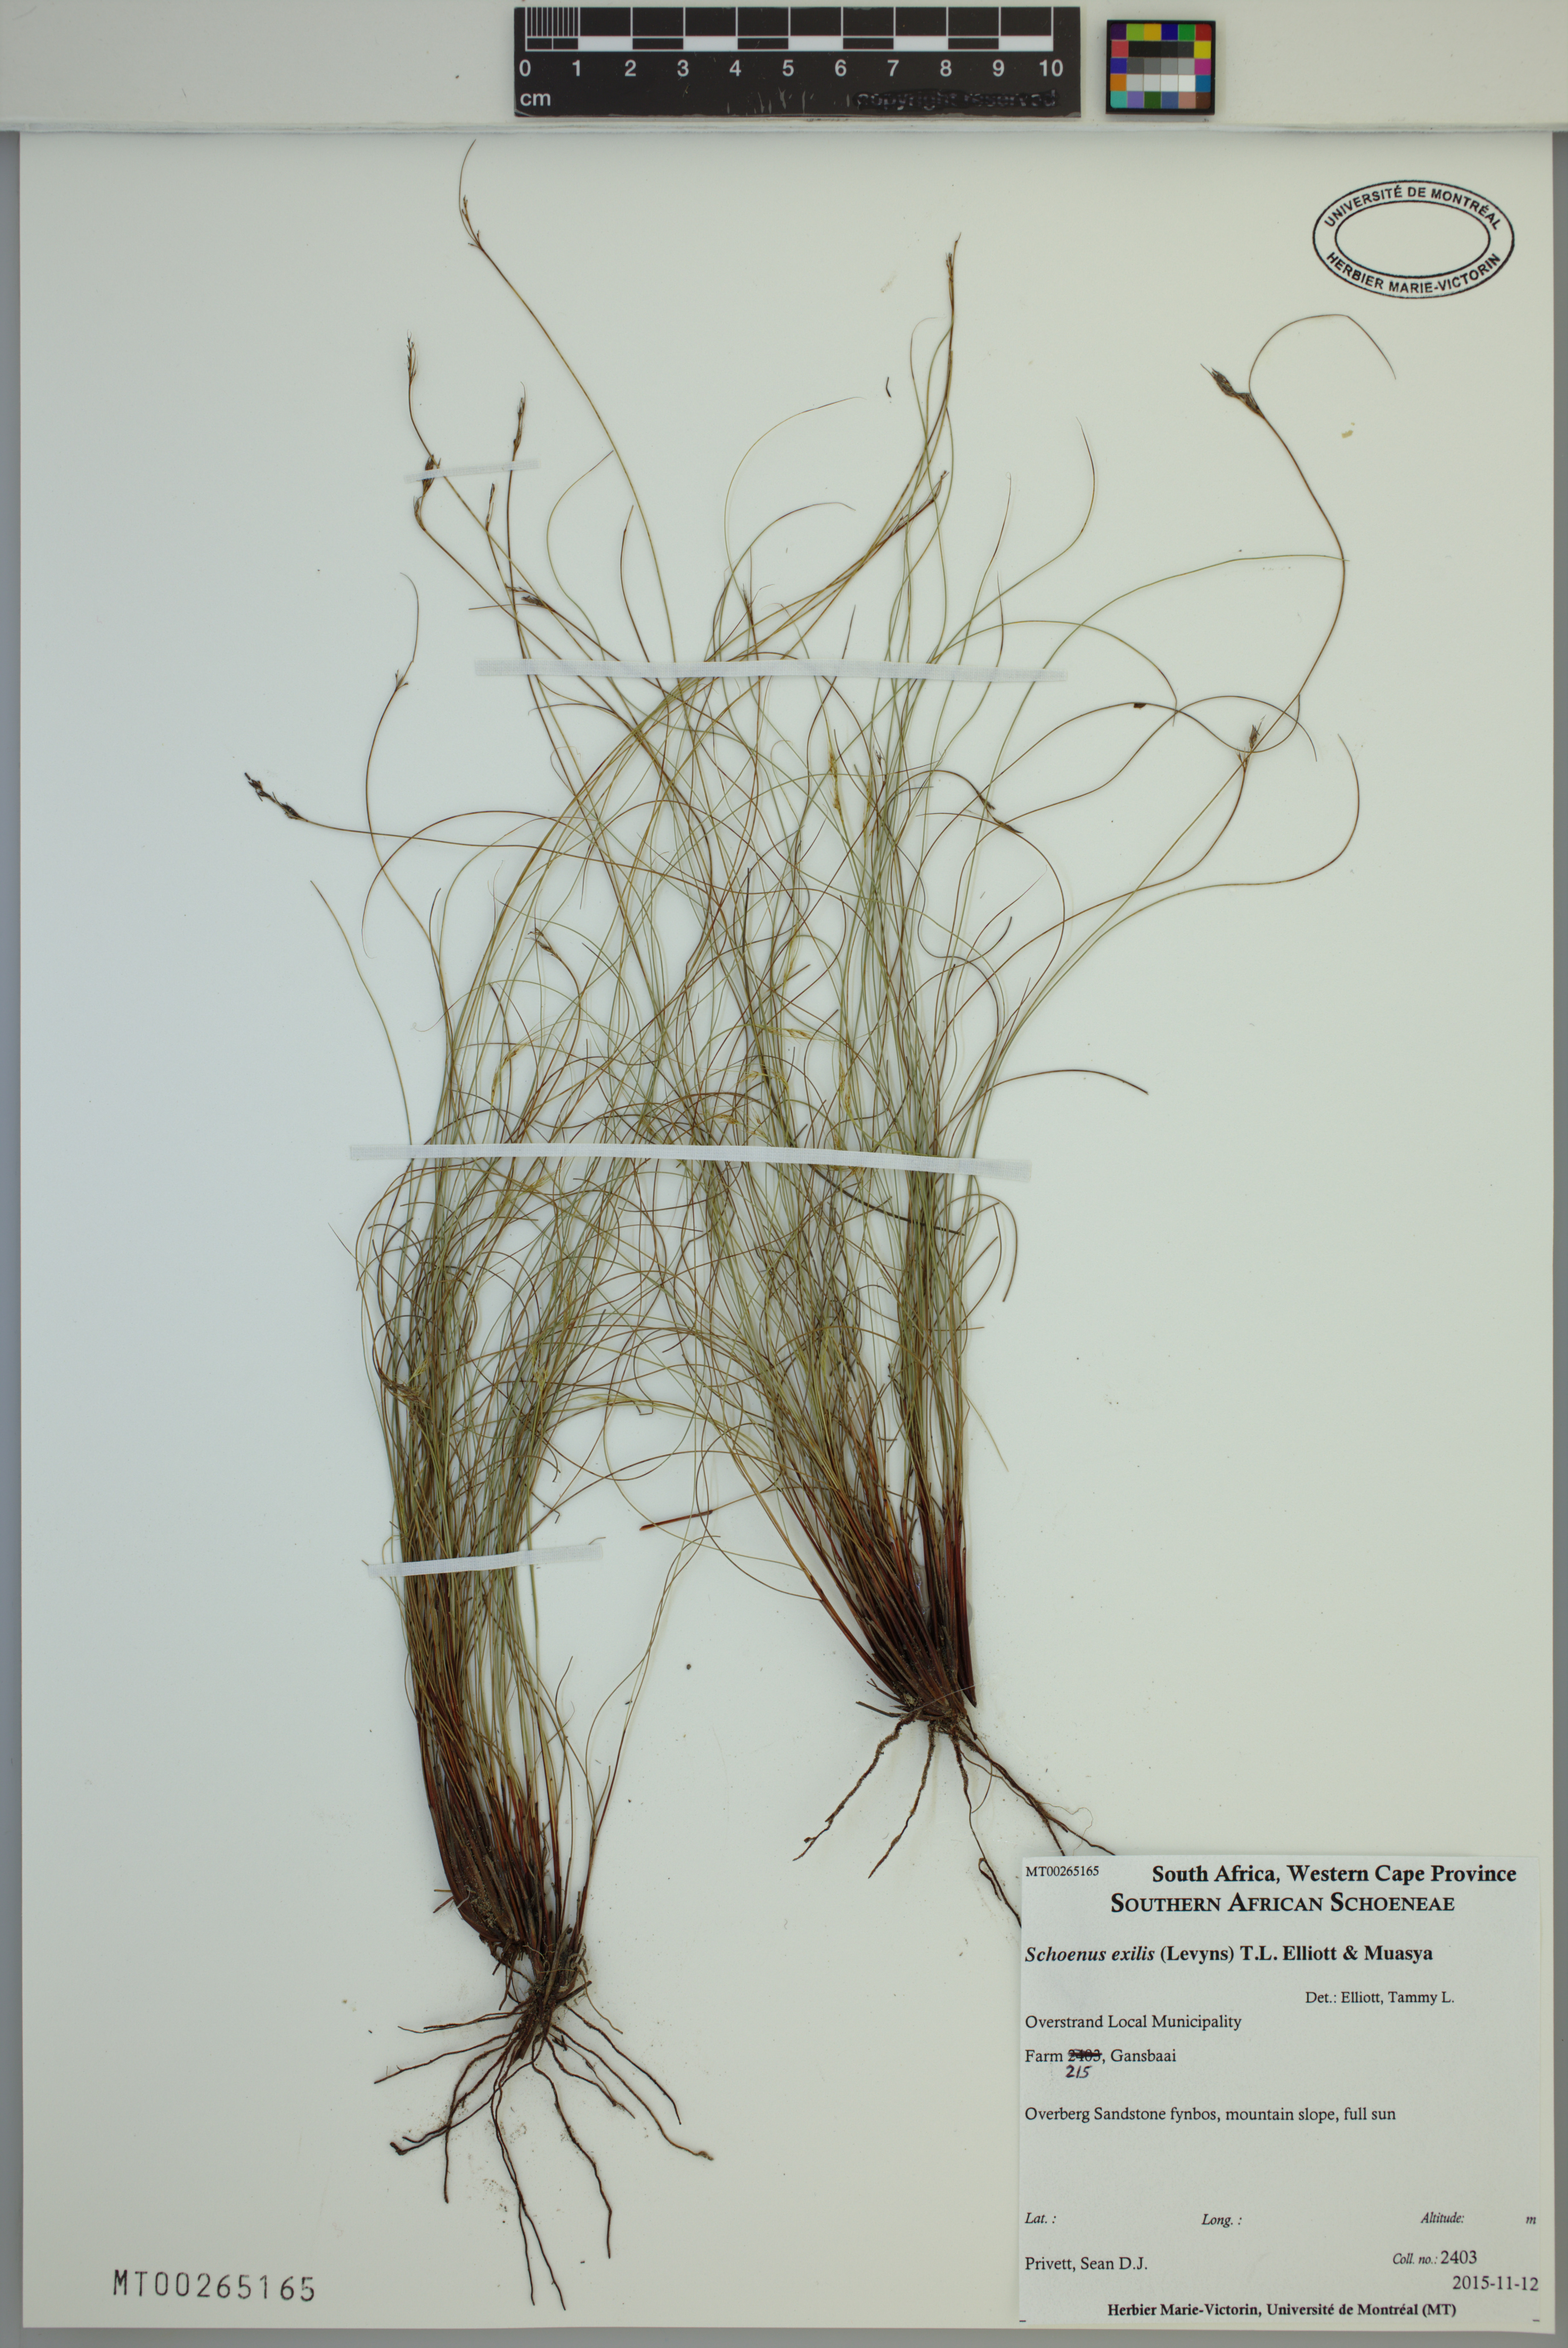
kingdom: Plantae
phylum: Tracheophyta
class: Liliopsida
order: Poales
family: Cyperaceae
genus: Schoenus
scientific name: Schoenus exilis
